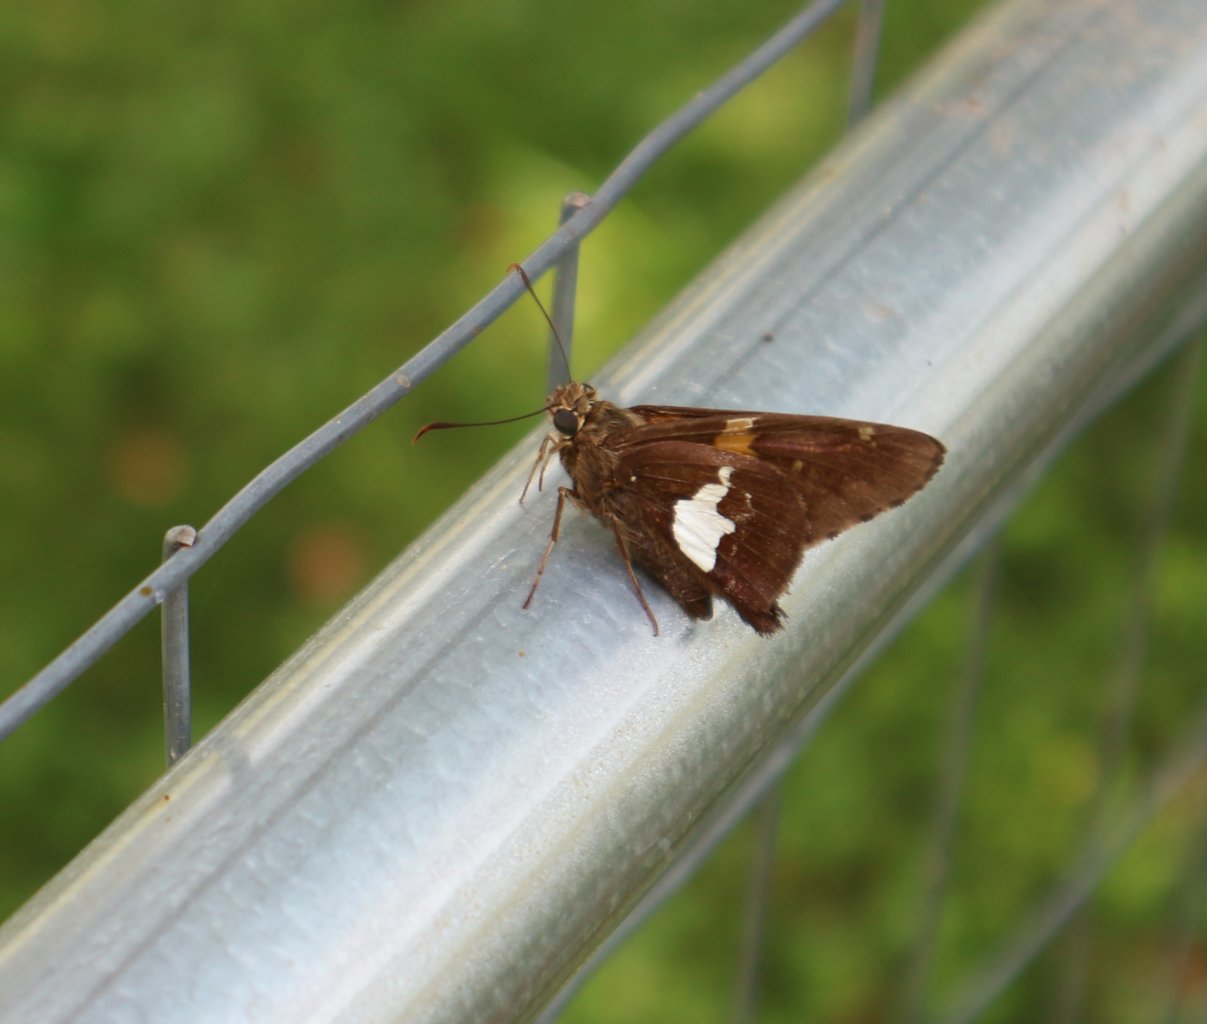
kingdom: Animalia
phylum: Arthropoda
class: Insecta
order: Lepidoptera
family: Hesperiidae
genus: Epargyreus
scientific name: Epargyreus clarus
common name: Silver-spotted Skipper
